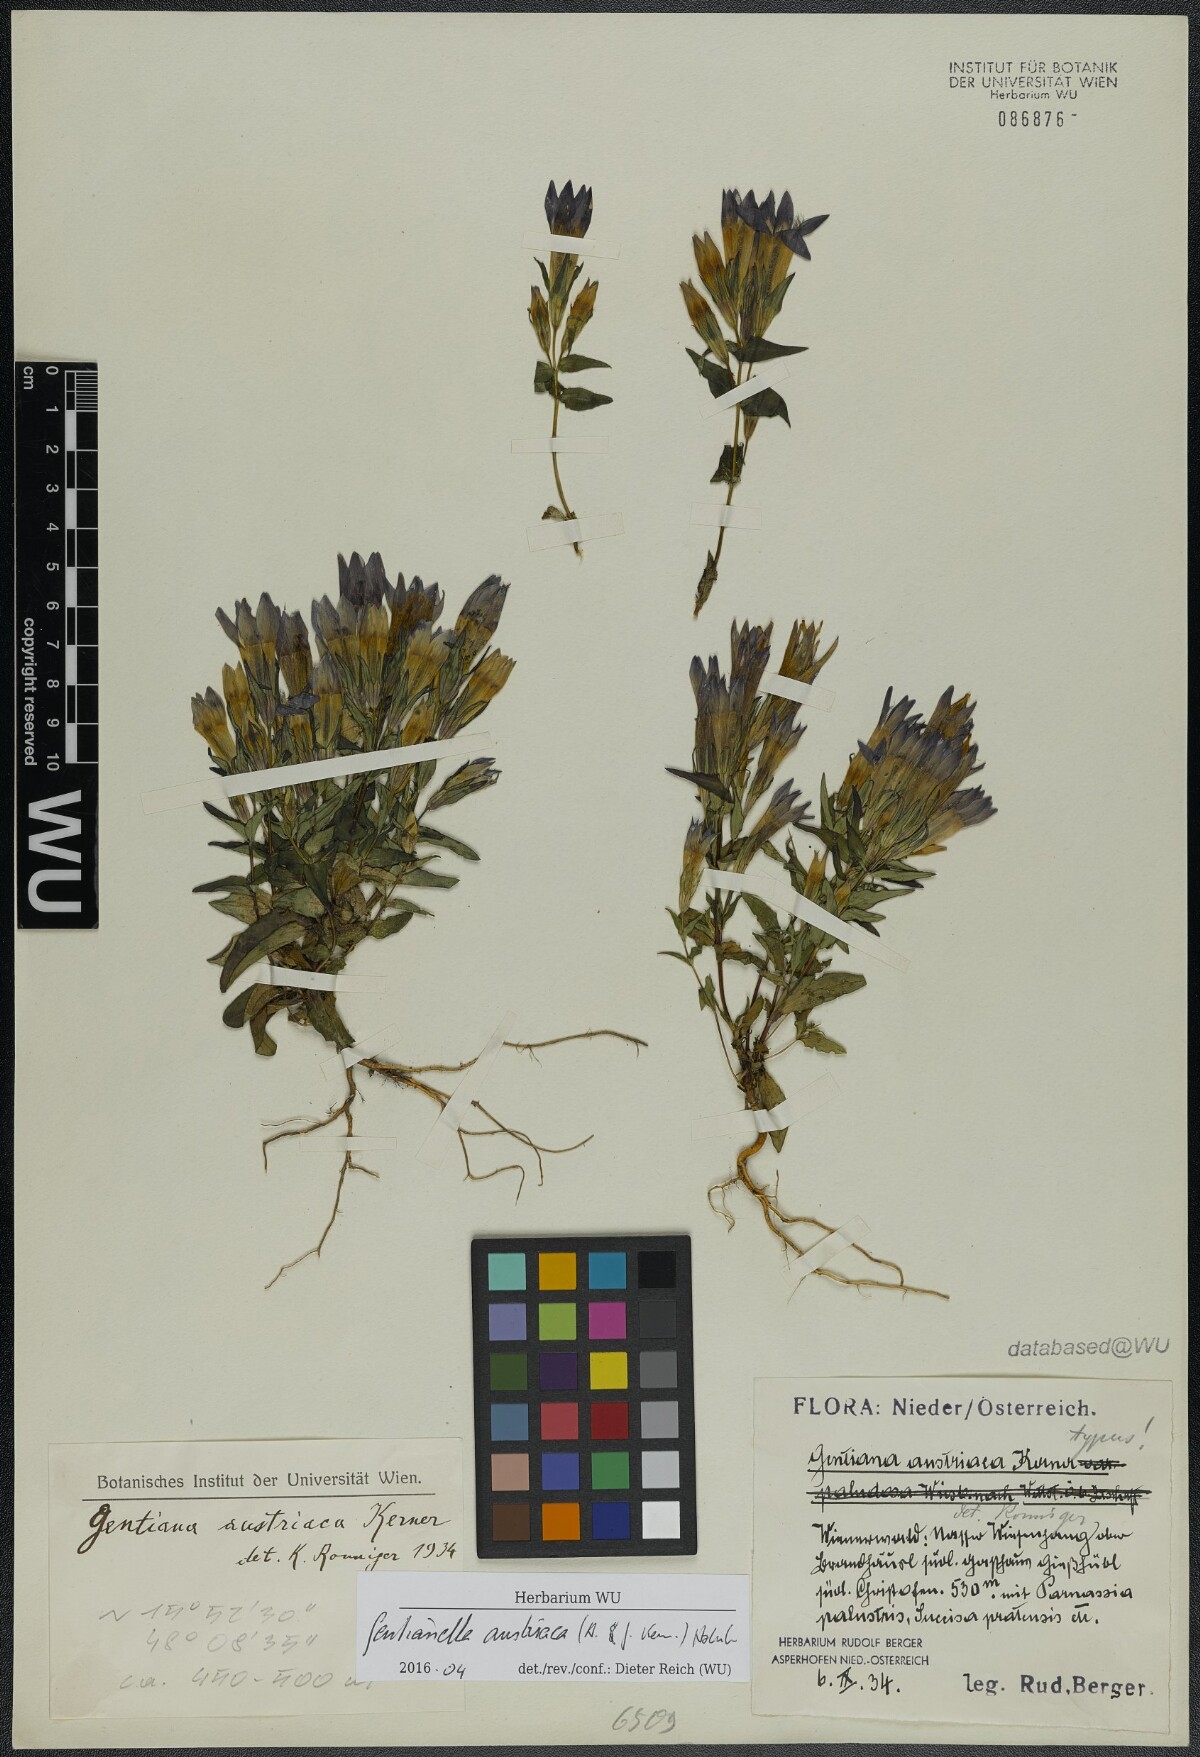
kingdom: Plantae
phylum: Tracheophyta
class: Magnoliopsida
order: Gentianales
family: Gentianaceae
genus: Gentianella
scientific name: Gentianella austriaca
